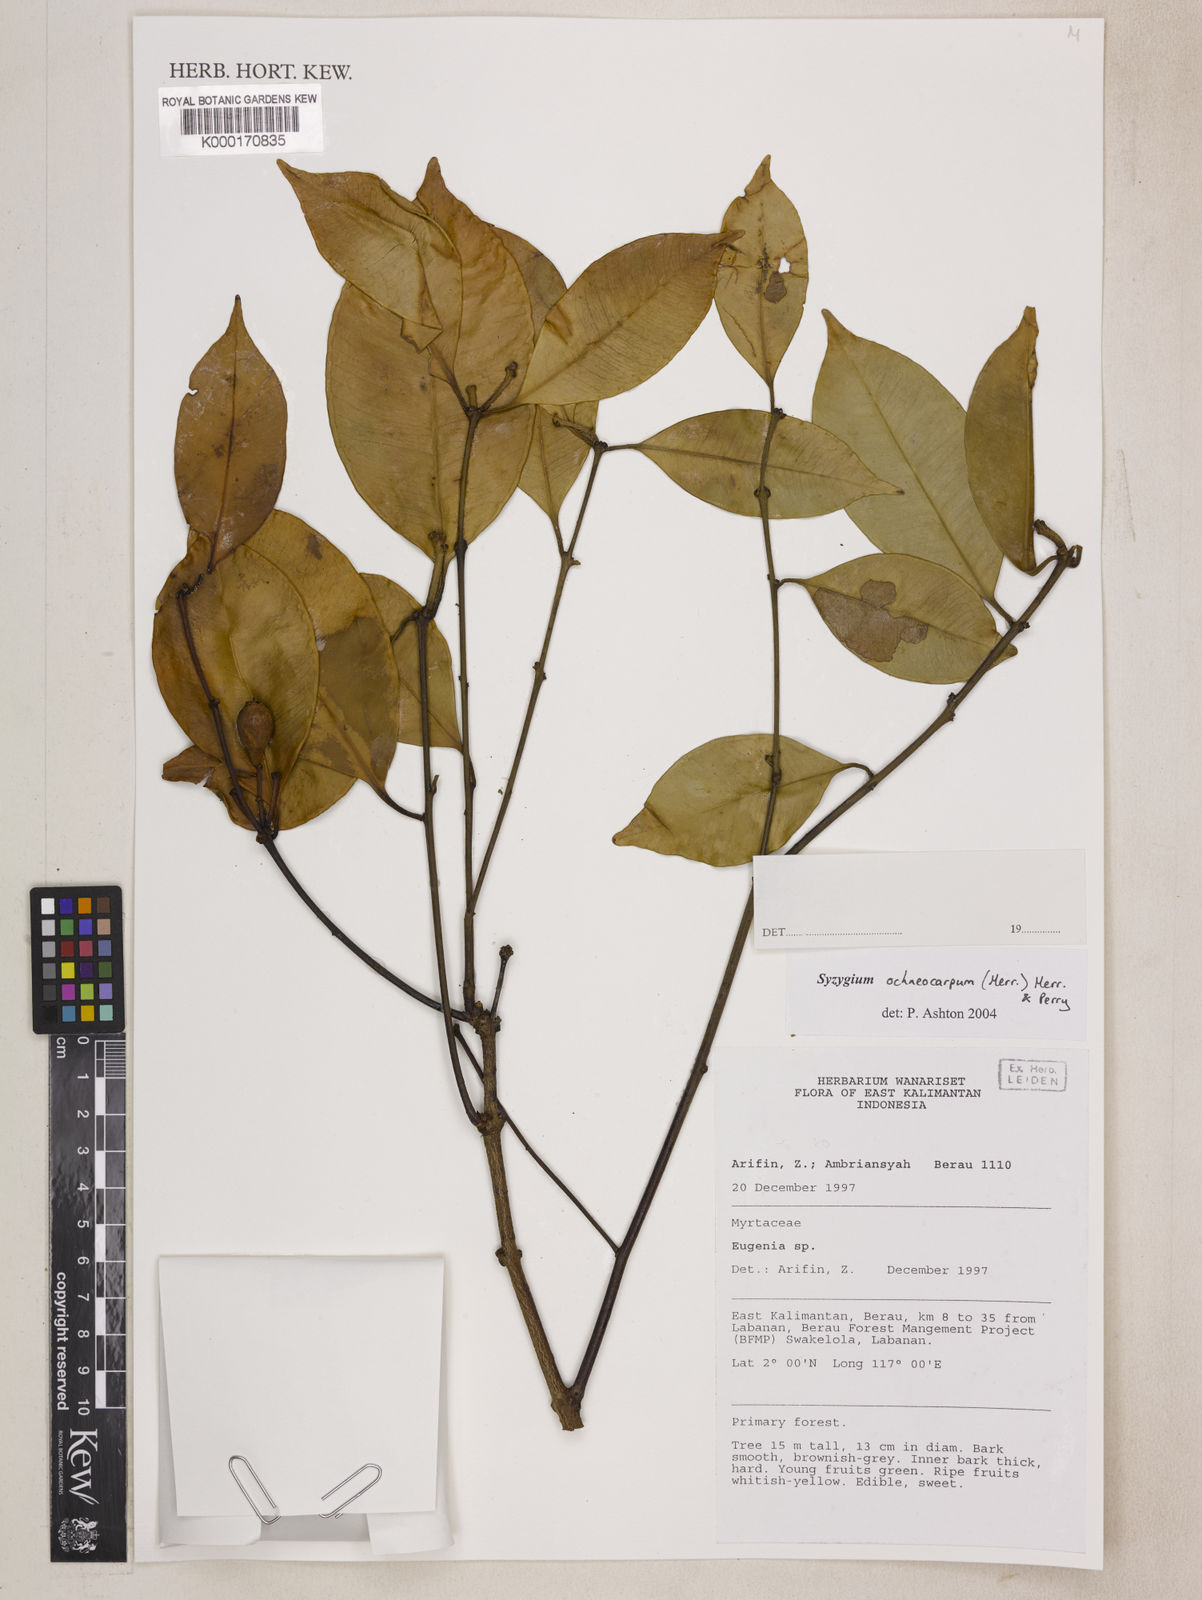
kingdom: Plantae
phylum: Tracheophyta
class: Magnoliopsida
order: Myrtales
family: Myrtaceae
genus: Syzygium
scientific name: Syzygium oligomyrum
